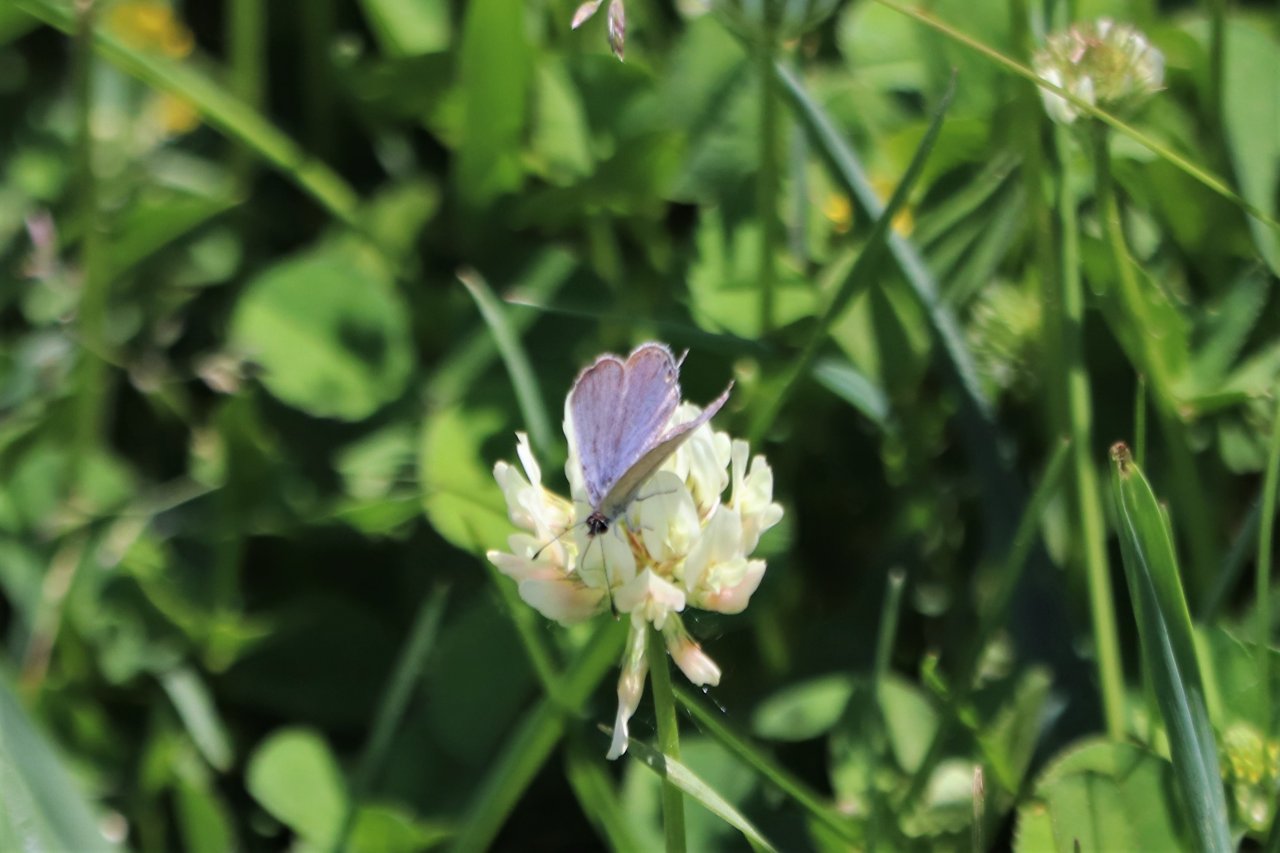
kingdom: Animalia
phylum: Arthropoda
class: Insecta
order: Lepidoptera
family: Lycaenidae
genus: Elkalyce
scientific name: Elkalyce comyntas
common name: Eastern Tailed-Blue
